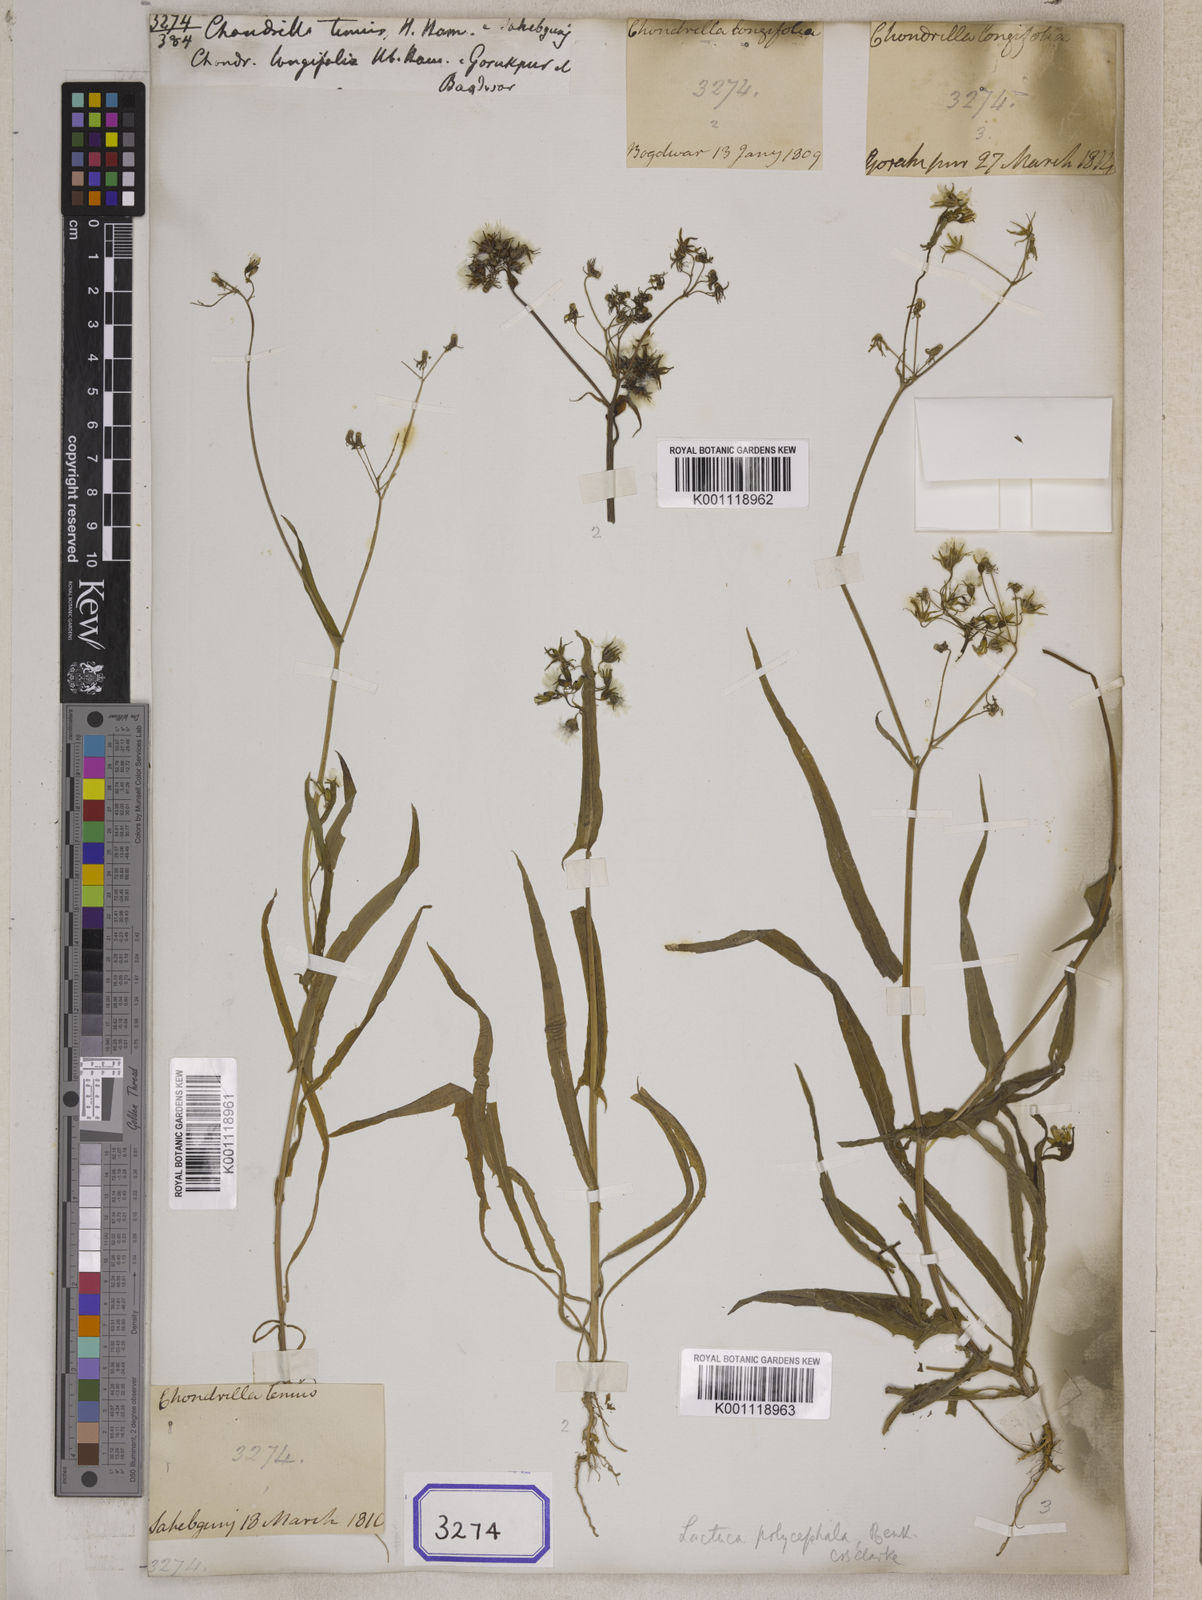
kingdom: Plantae
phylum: Tracheophyta
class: Magnoliopsida
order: Asterales
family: Asteraceae
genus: Ixeris
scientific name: Ixeris polycephala
